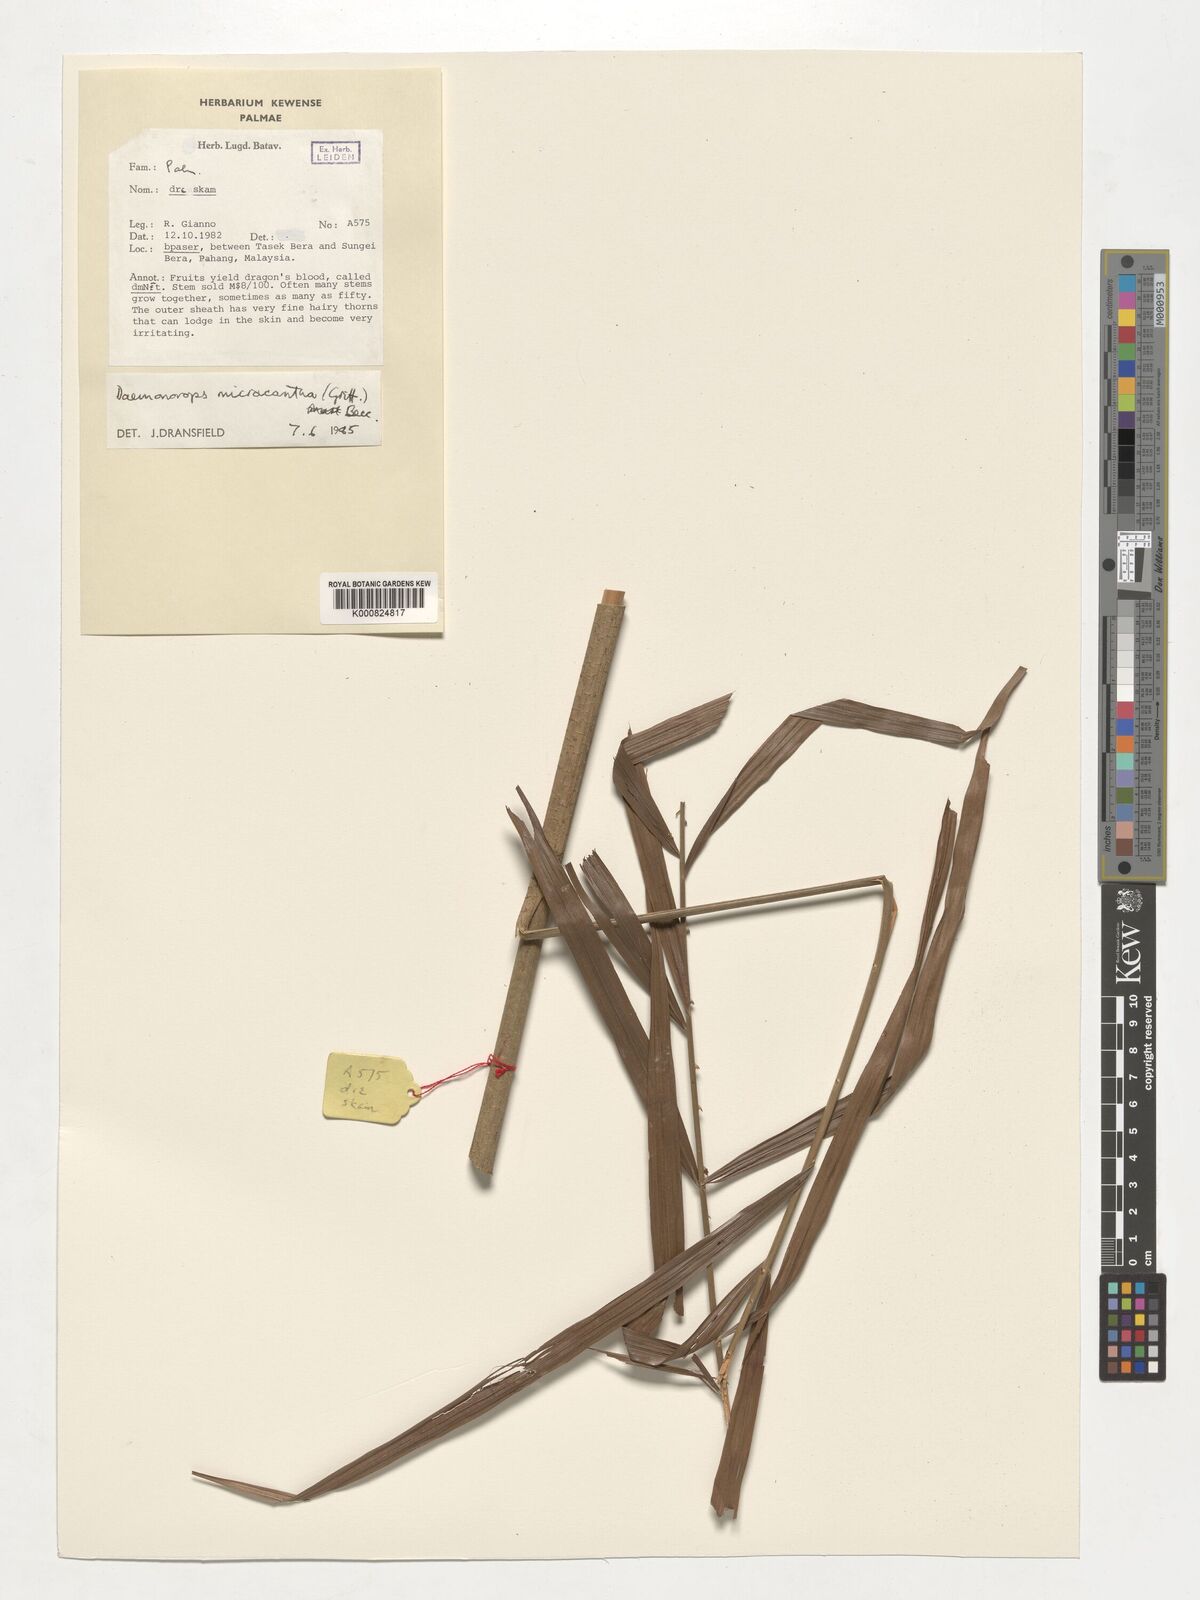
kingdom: Plantae
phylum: Tracheophyta
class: Liliopsida
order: Arecales
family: Arecaceae
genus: Calamus
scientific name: Calamus micracanthus
